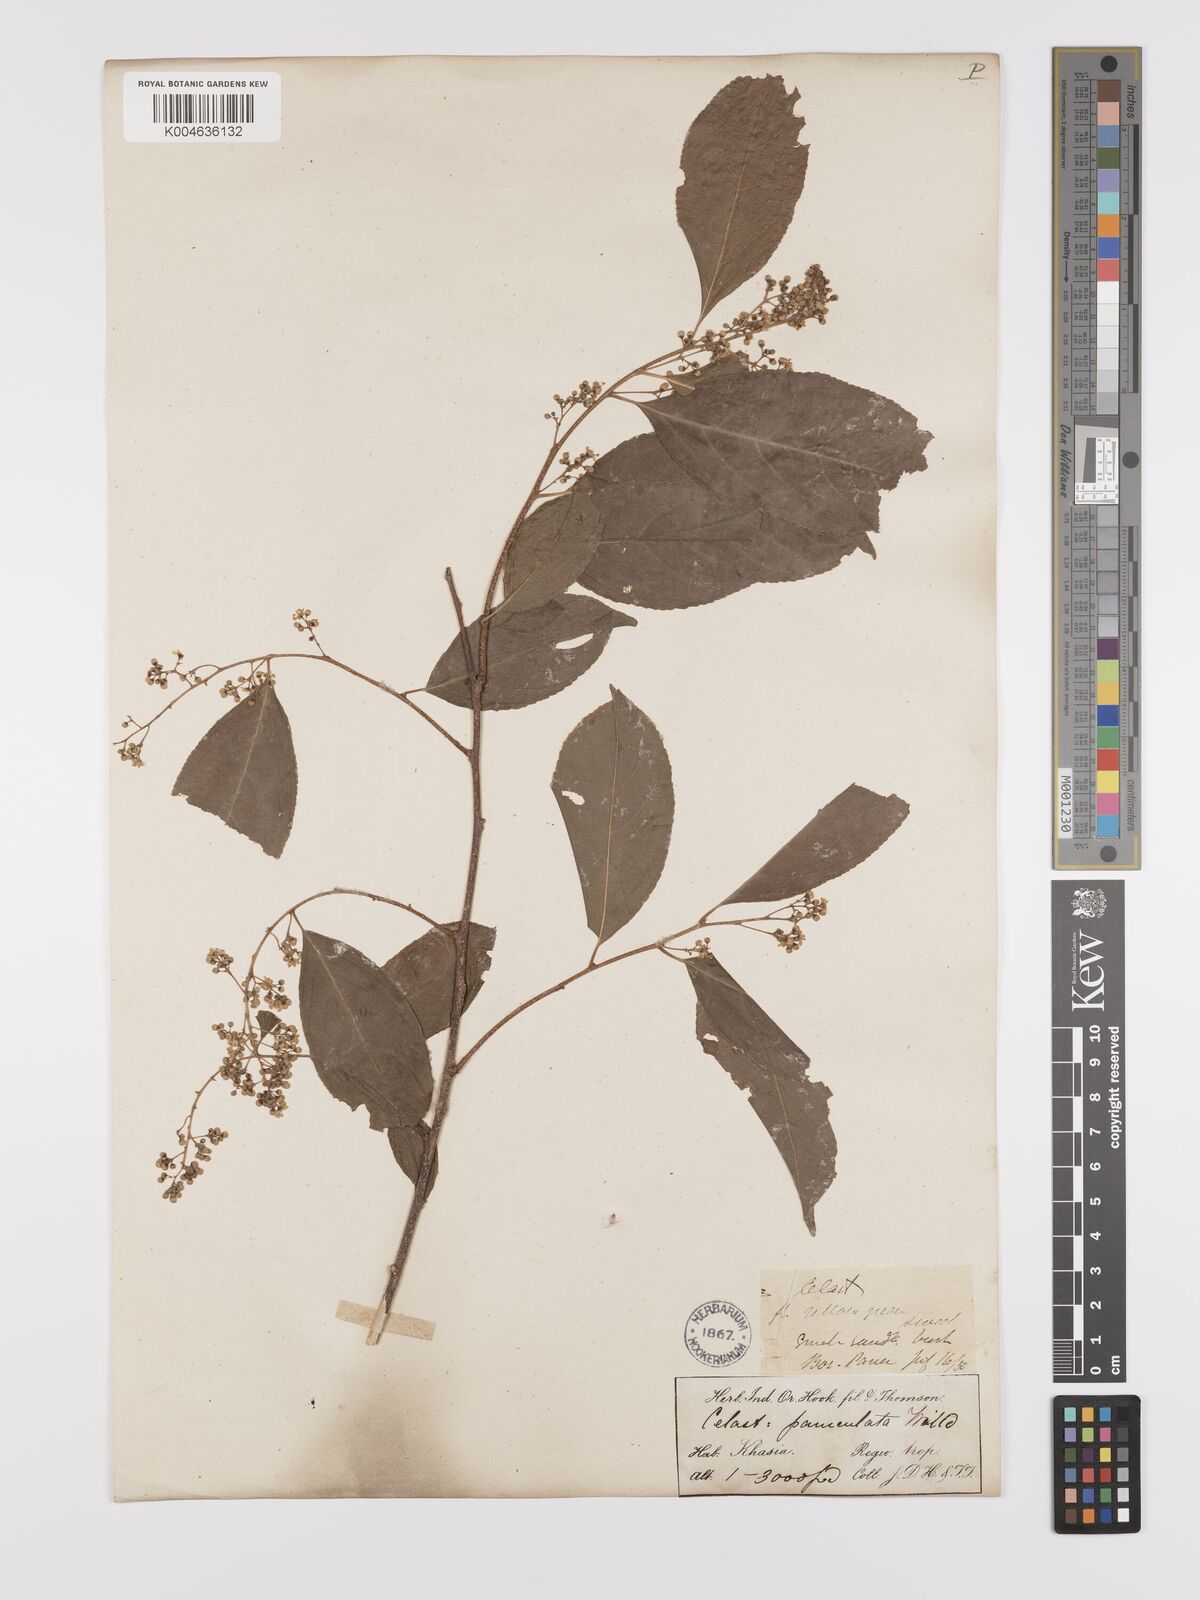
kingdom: Plantae
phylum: Tracheophyta
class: Magnoliopsida
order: Celastrales
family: Celastraceae
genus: Celastrus
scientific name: Celastrus paniculatus
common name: Oriental bittersweet; staff vine
